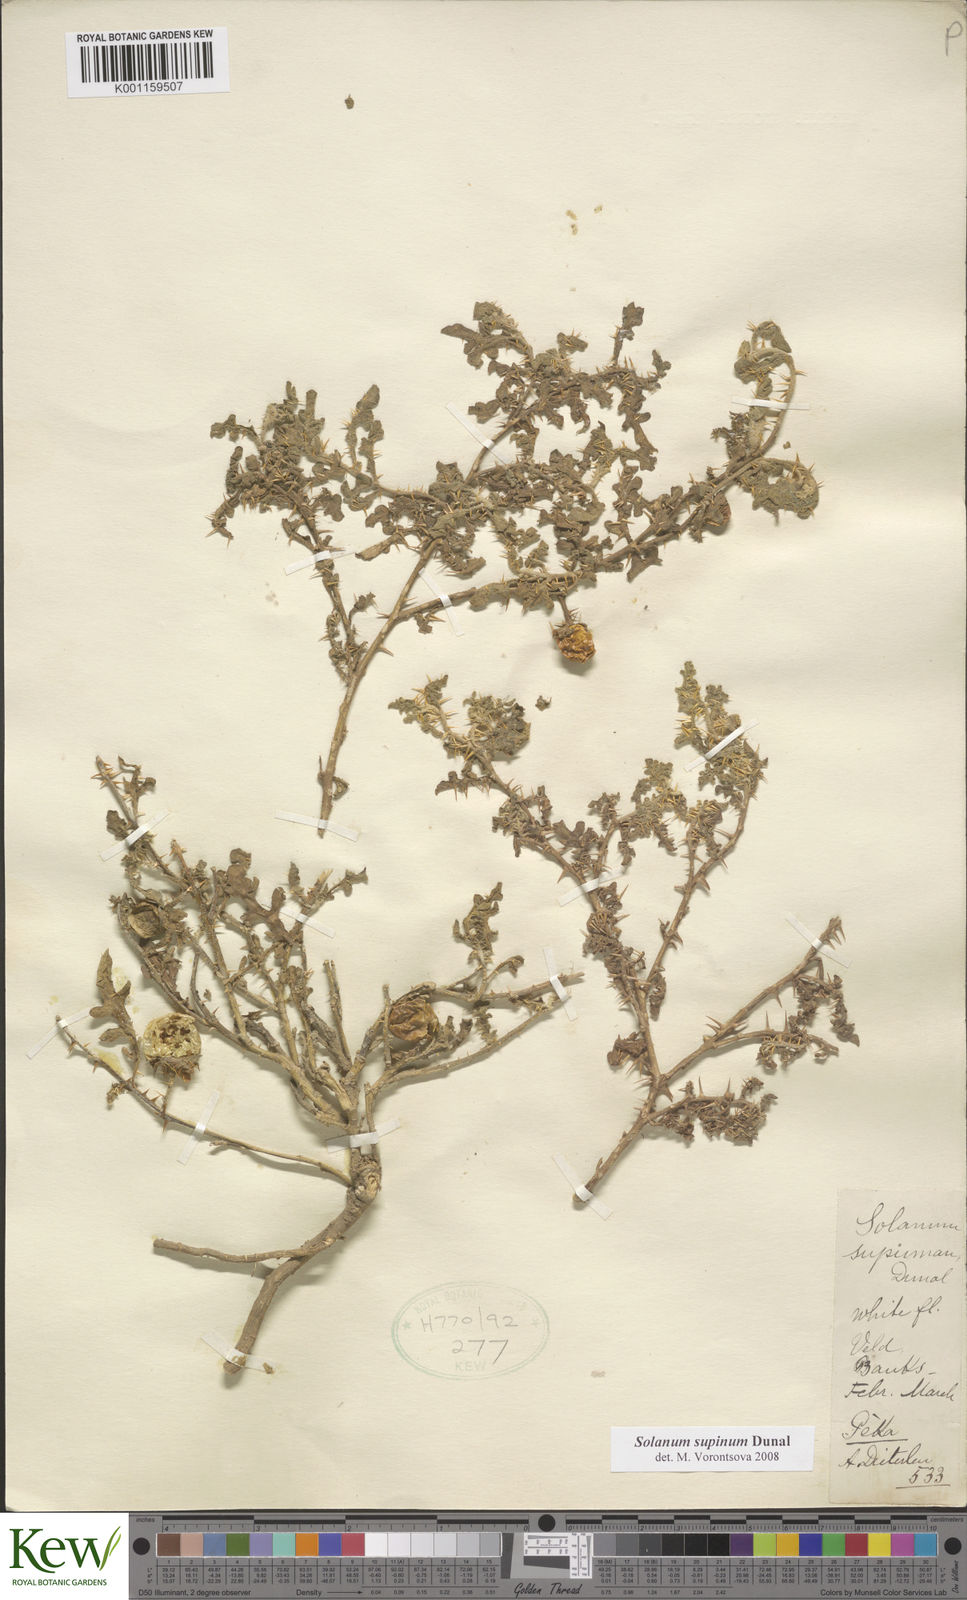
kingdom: Plantae
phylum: Tracheophyta
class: Magnoliopsida
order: Solanales
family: Solanaceae
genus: Solanum
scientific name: Solanum supinum
